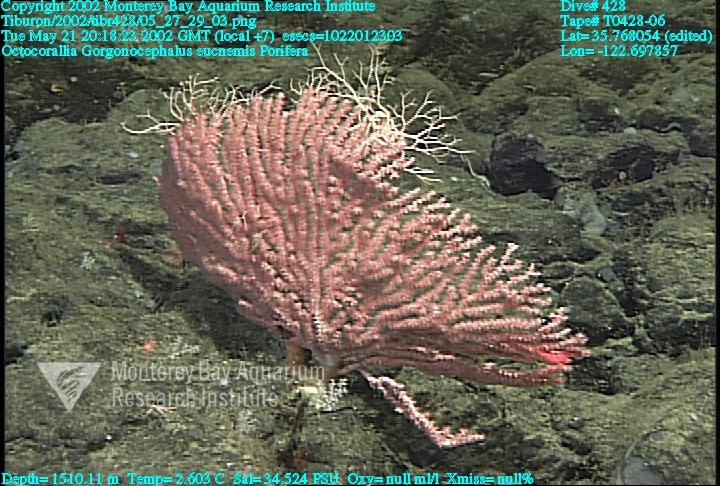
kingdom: Animalia
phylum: Porifera
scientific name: Porifera
